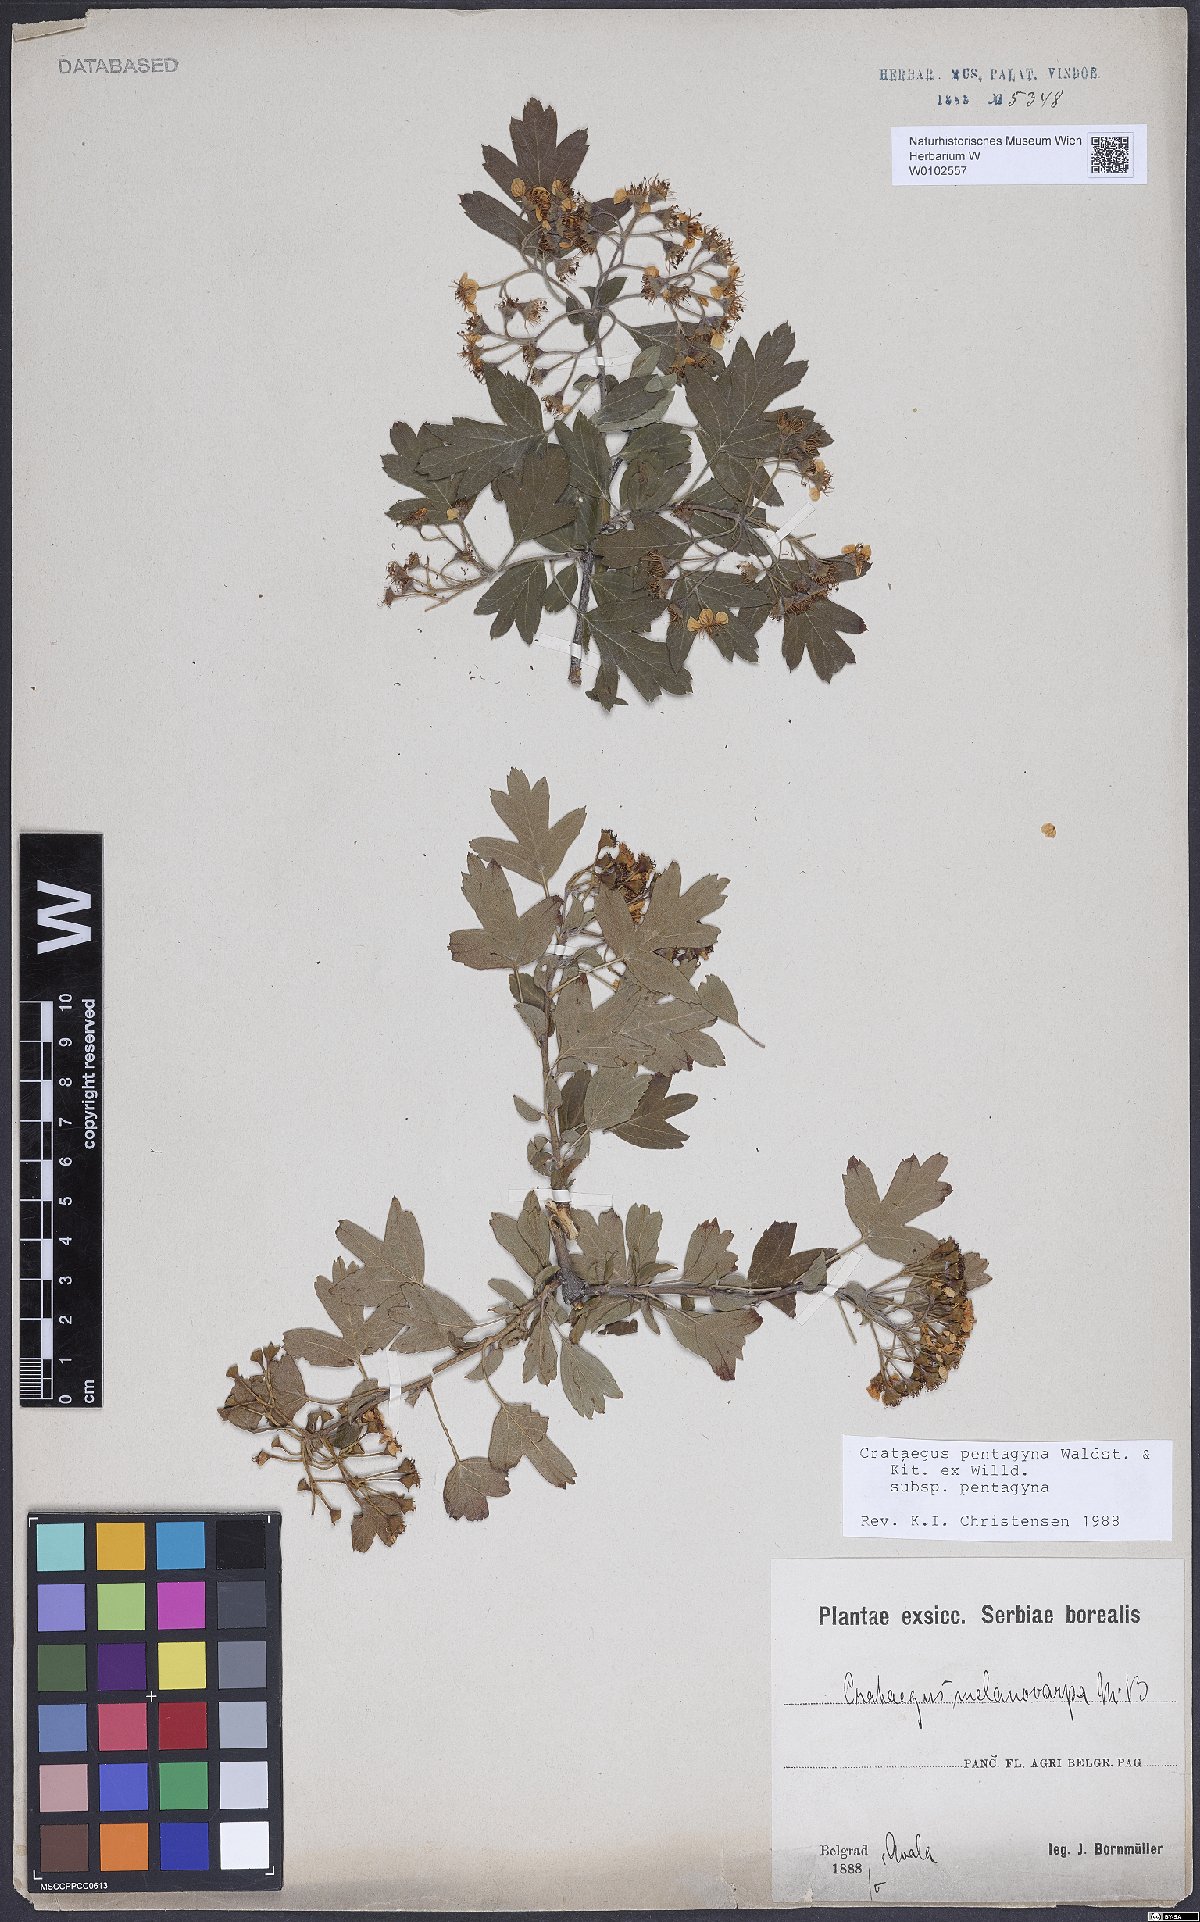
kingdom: Plantae
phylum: Tracheophyta
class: Magnoliopsida
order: Rosales
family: Rosaceae
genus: Crataegus
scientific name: Crataegus pentagyna
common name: Small-flowered black hawthorn
